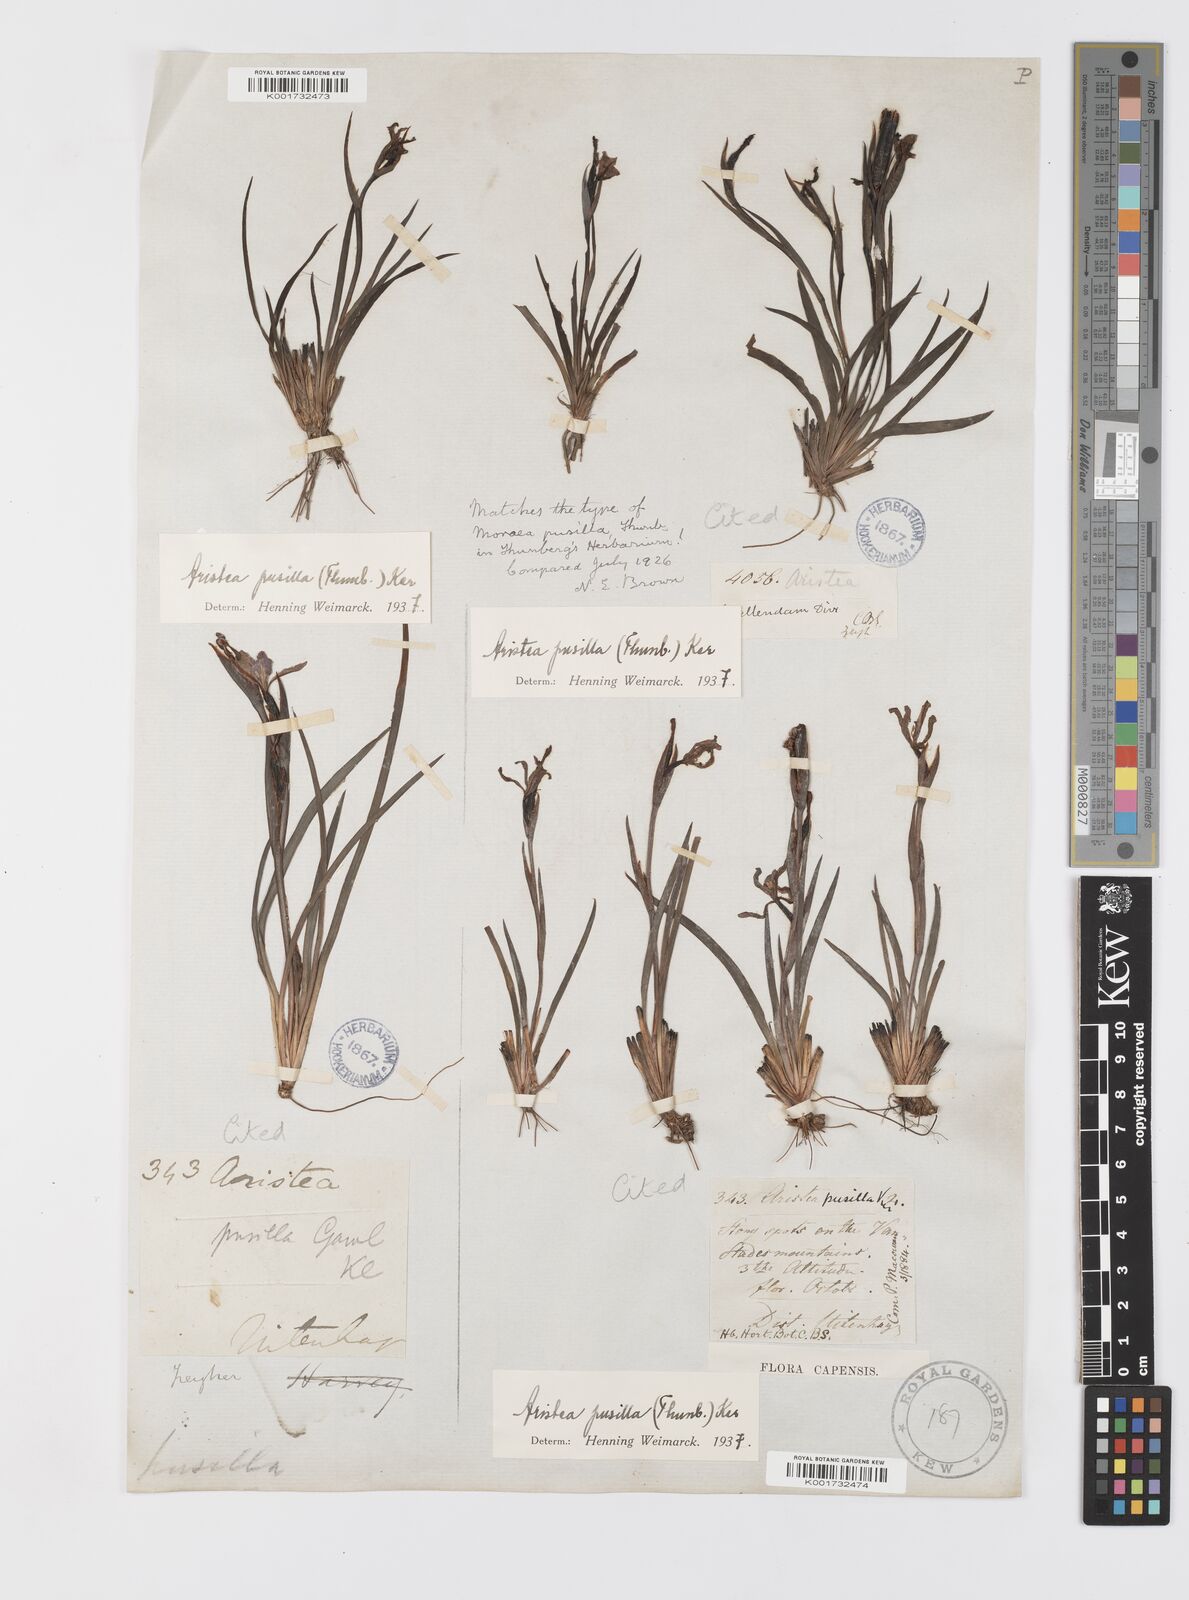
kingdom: Plantae
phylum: Tracheophyta
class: Liliopsida
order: Asparagales
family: Iridaceae
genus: Aristea
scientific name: Aristea pusilla
